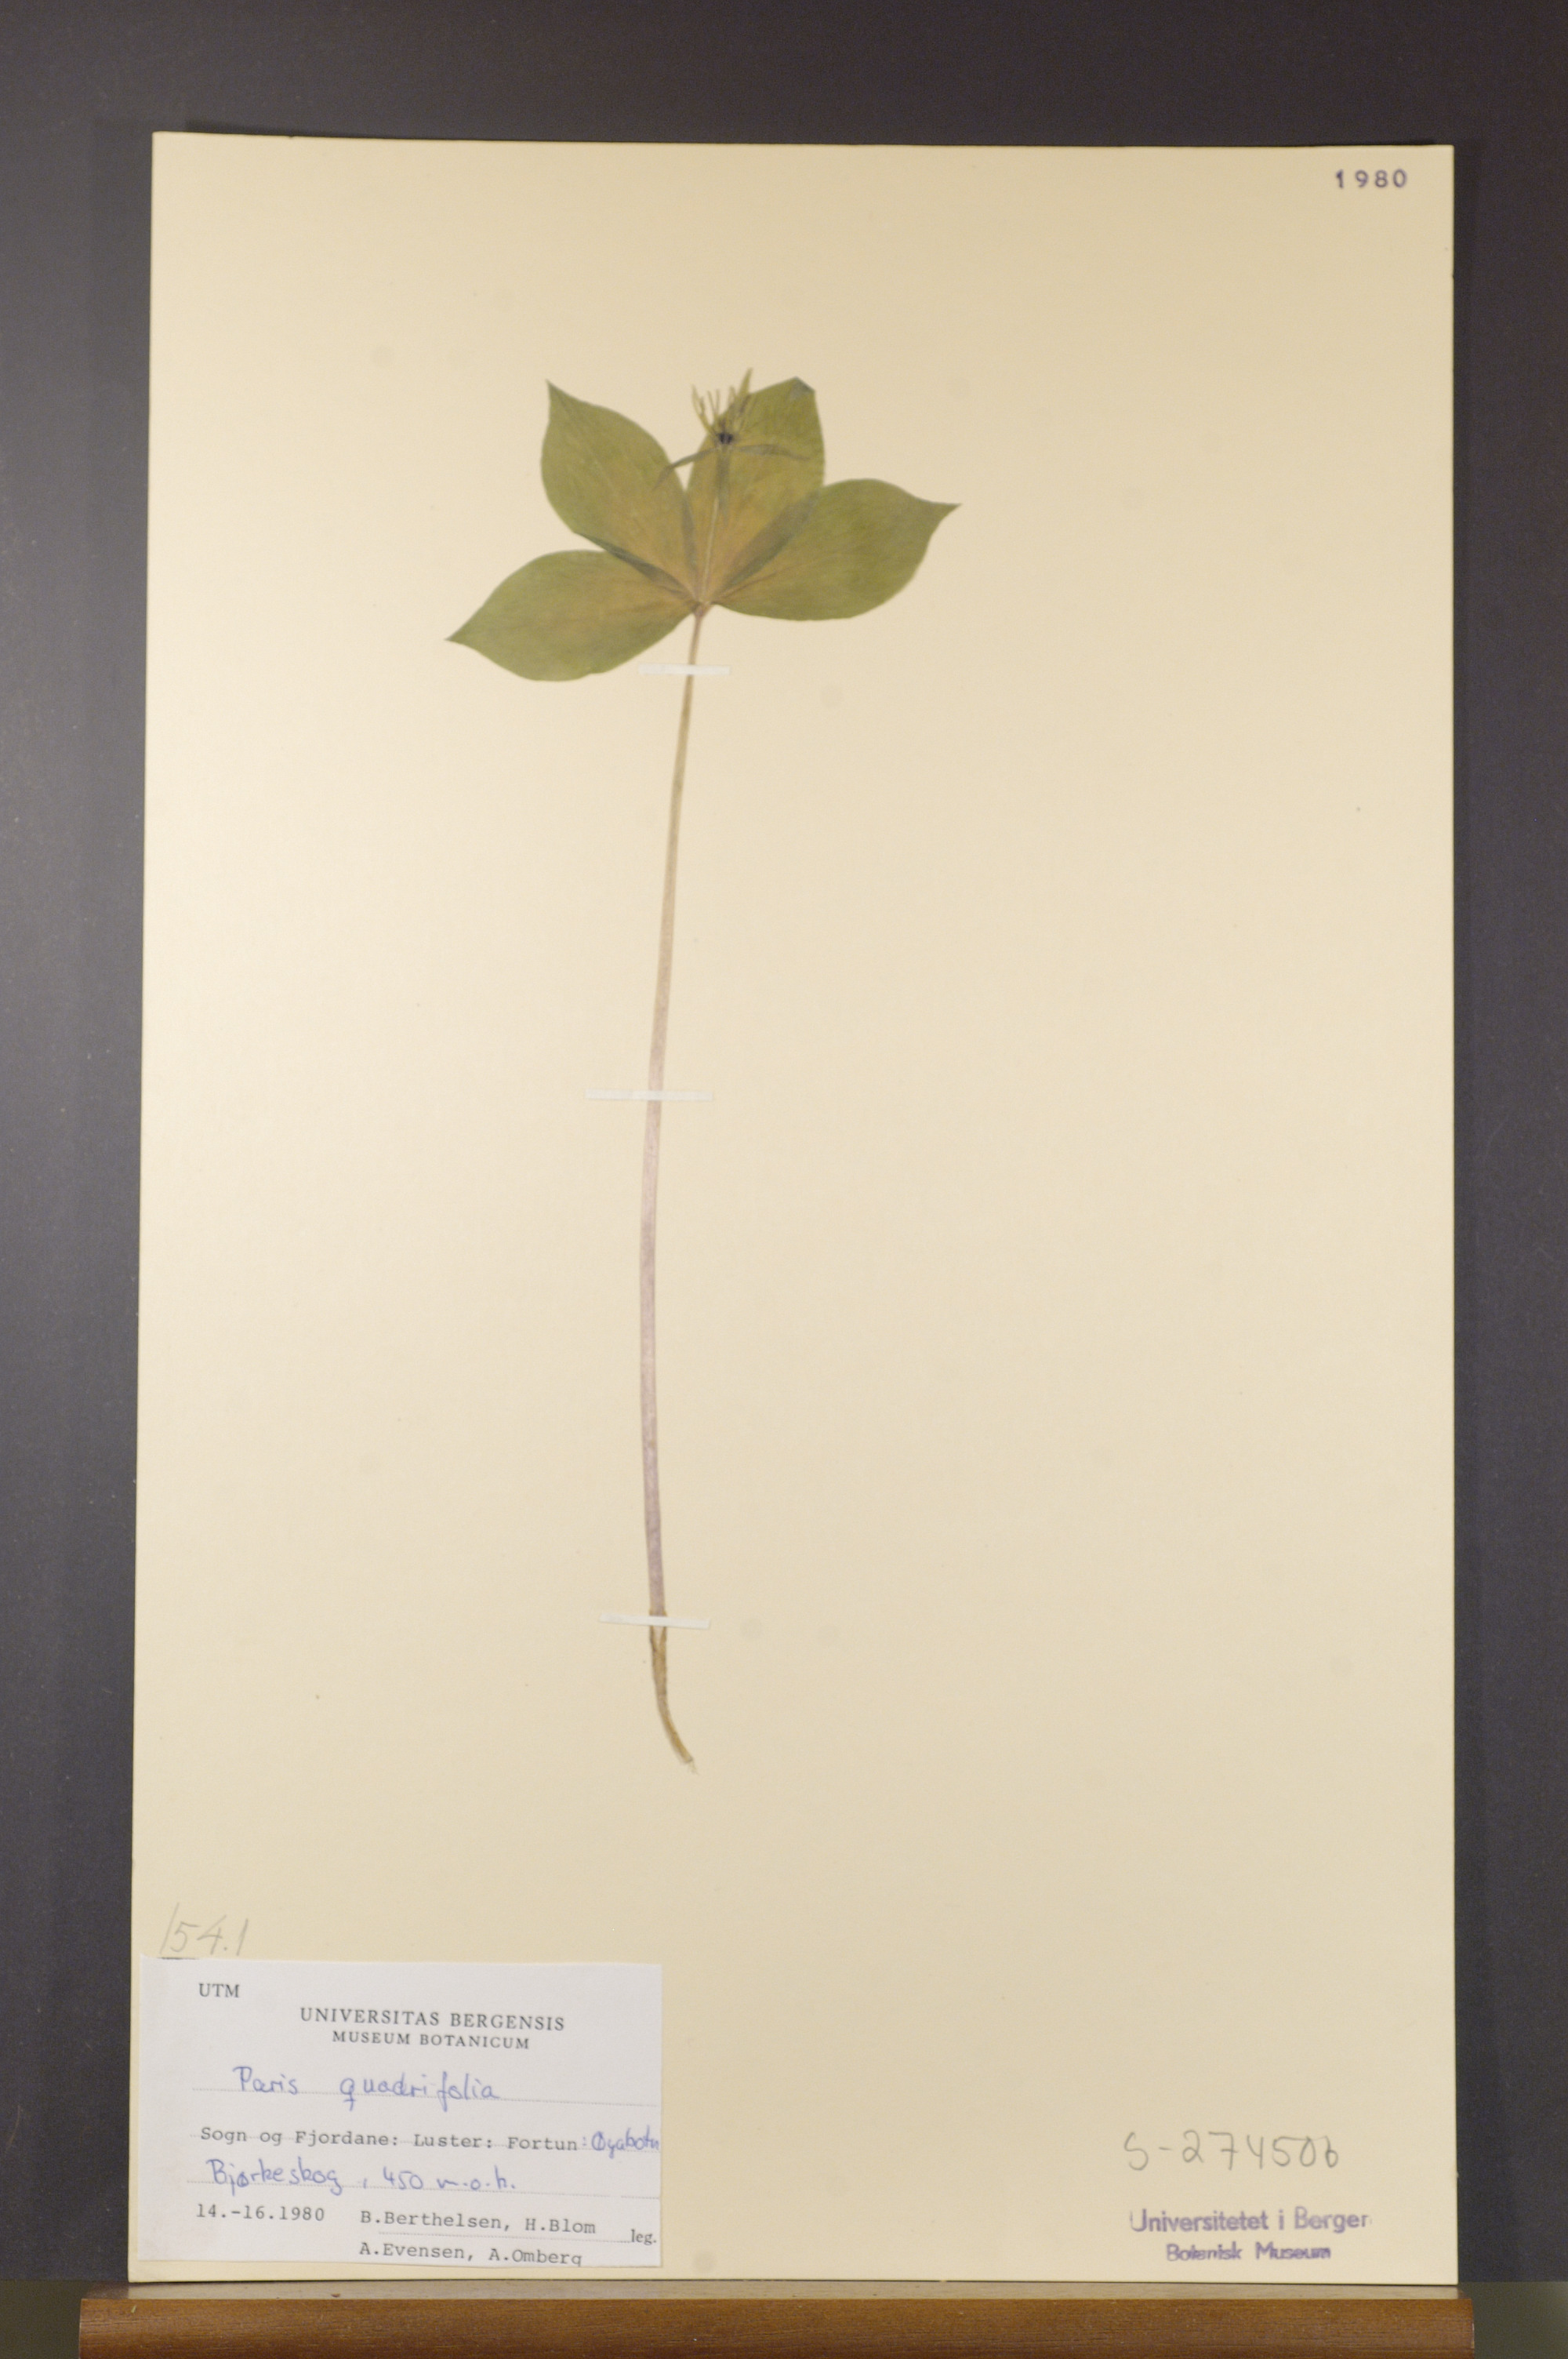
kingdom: Plantae
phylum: Tracheophyta
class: Liliopsida
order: Liliales
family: Melanthiaceae
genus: Paris
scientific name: Paris quadrifolia
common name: Herb-paris
